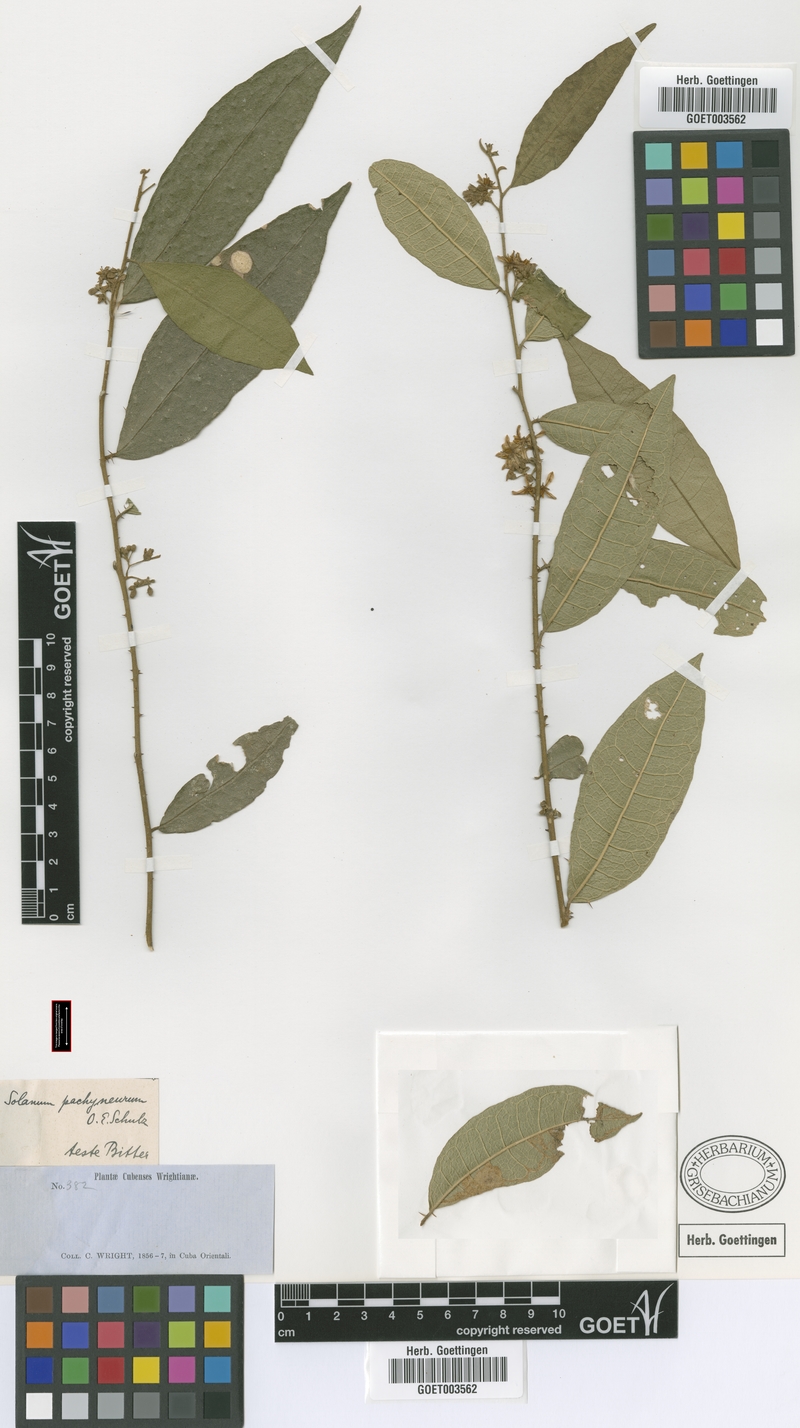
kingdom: Plantae
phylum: Tracheophyta
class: Magnoliopsida
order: Solanales
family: Solanaceae
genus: Solanum
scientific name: Solanum pachyneurum
